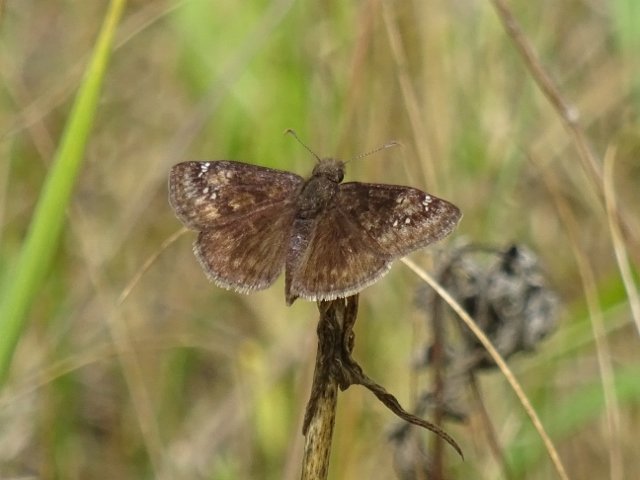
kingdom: Animalia
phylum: Arthropoda
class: Insecta
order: Lepidoptera
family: Hesperiidae
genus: Gesta
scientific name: Gesta
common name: Wild Indigo Duskywing
